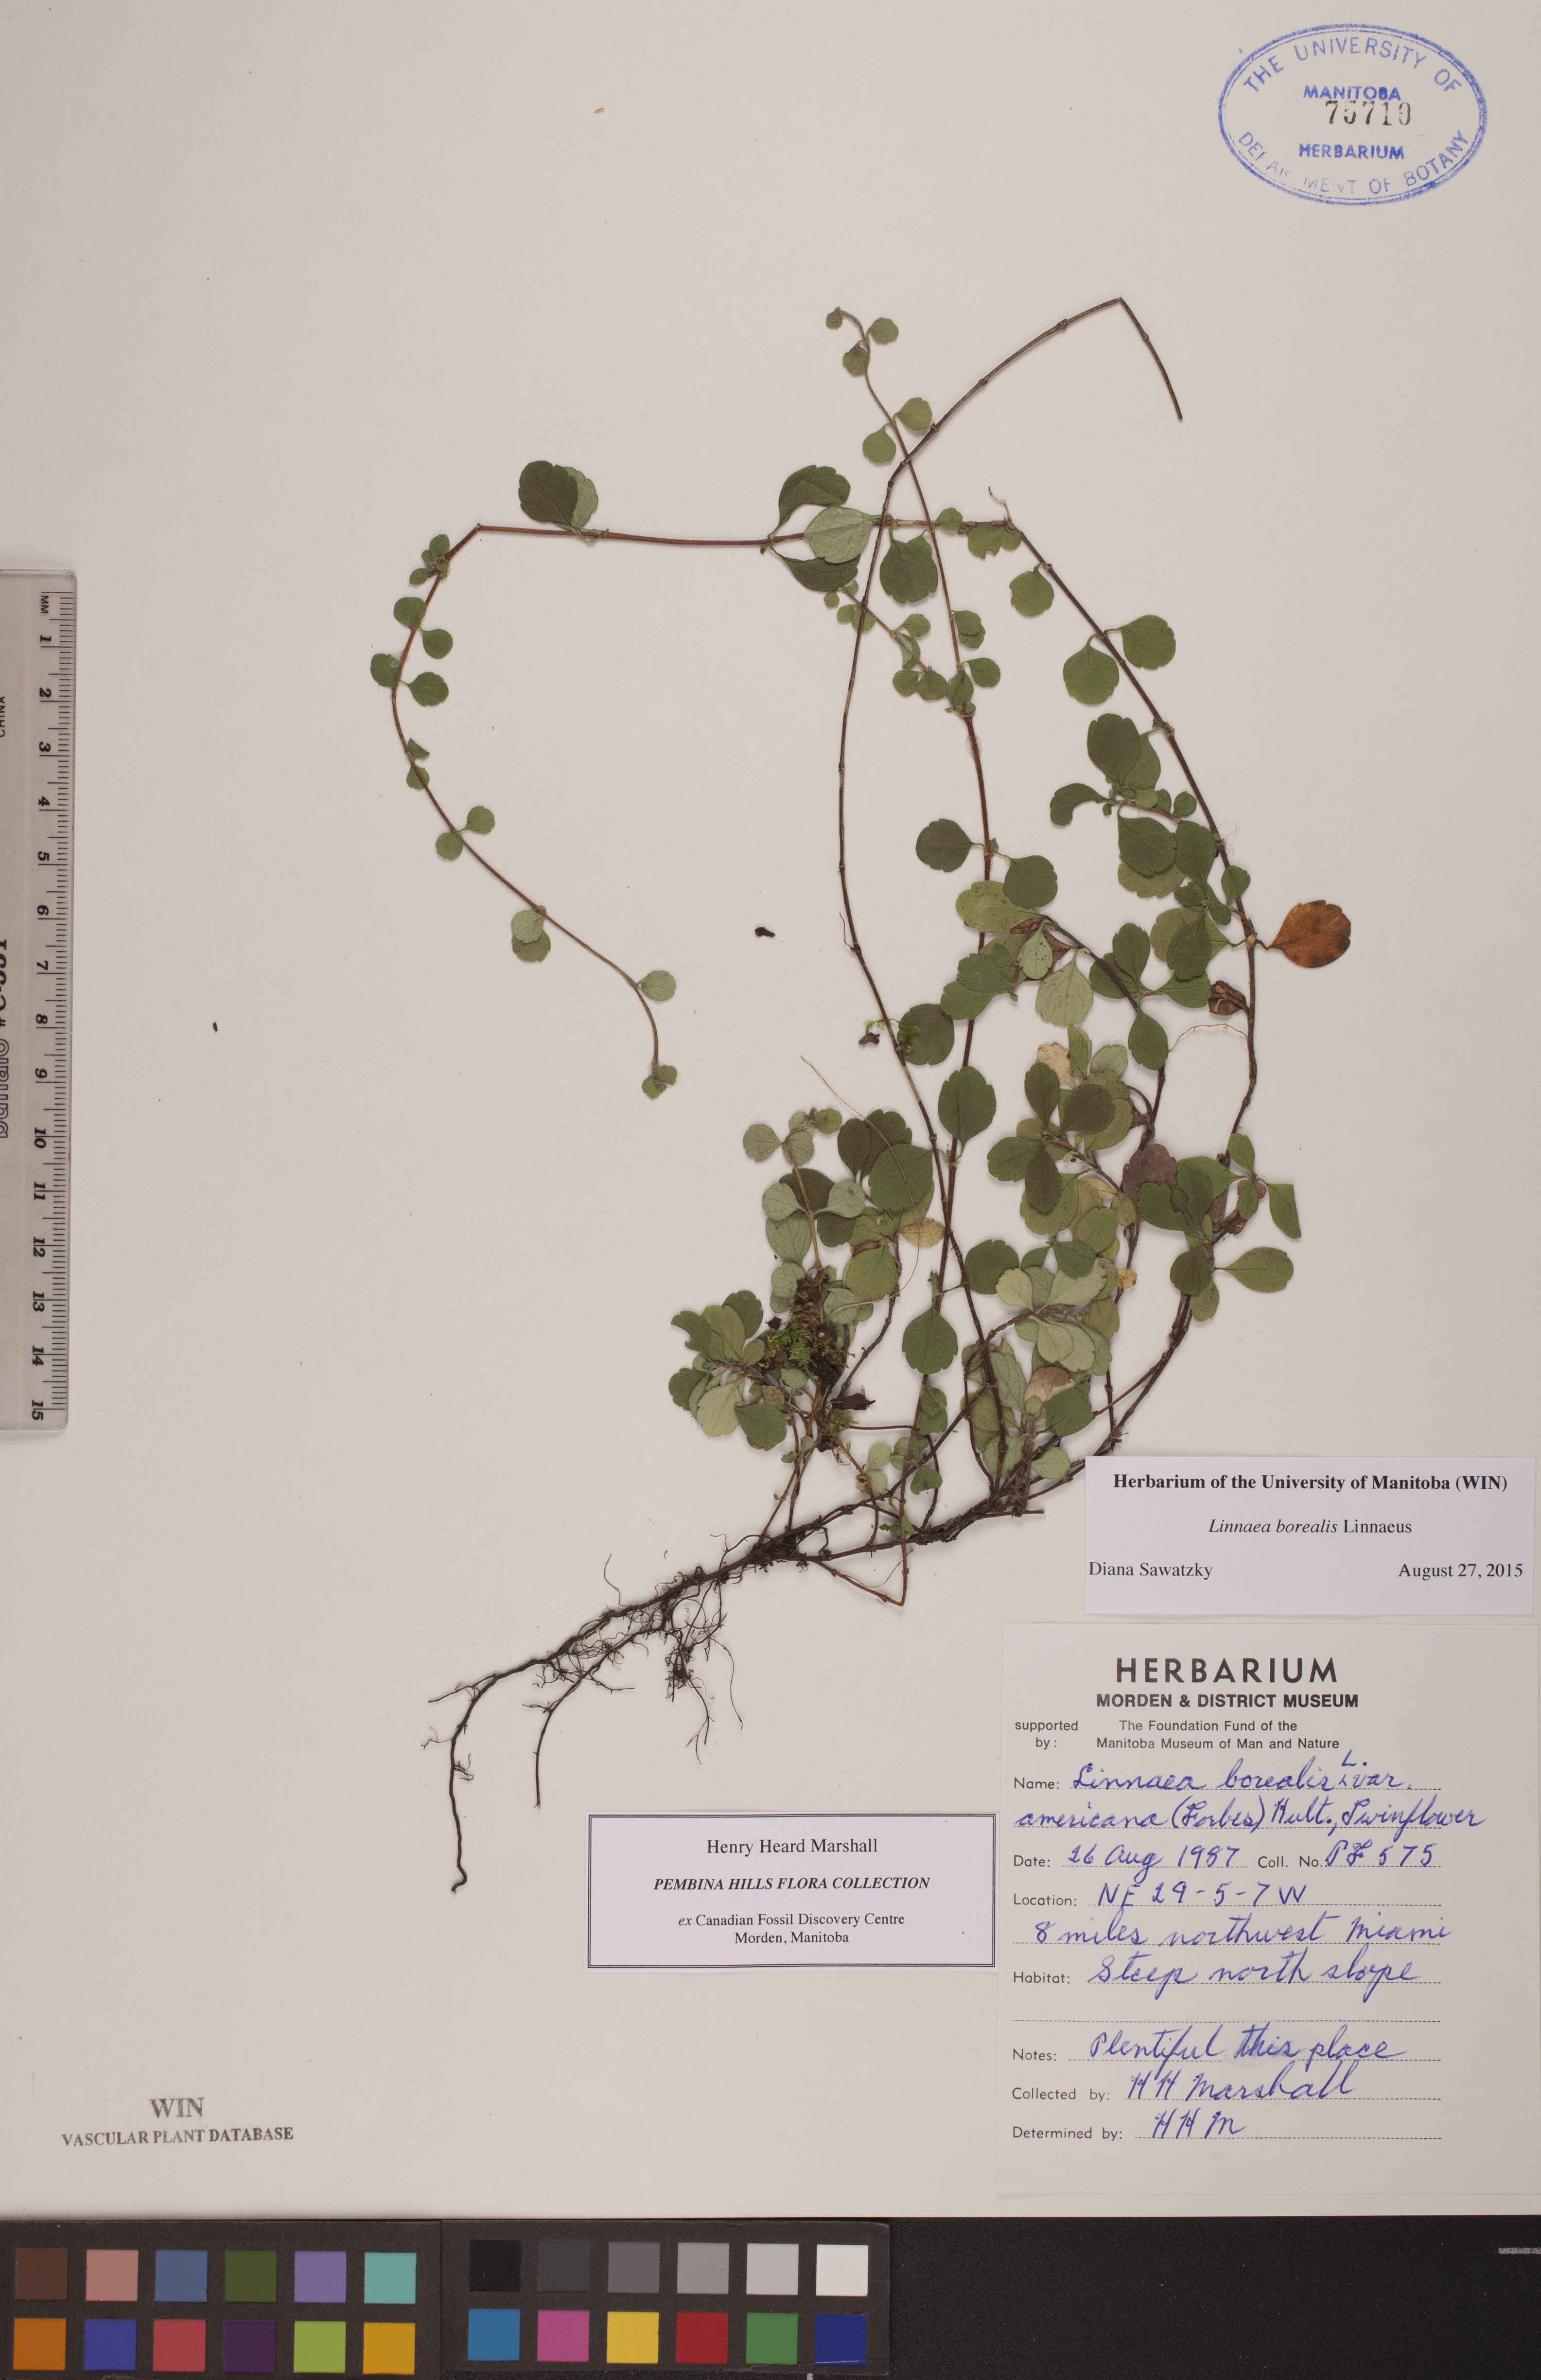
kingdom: Plantae
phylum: Tracheophyta
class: Magnoliopsida
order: Dipsacales
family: Caprifoliaceae
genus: Linnaea
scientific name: Linnaea borealis
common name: Twinflower
